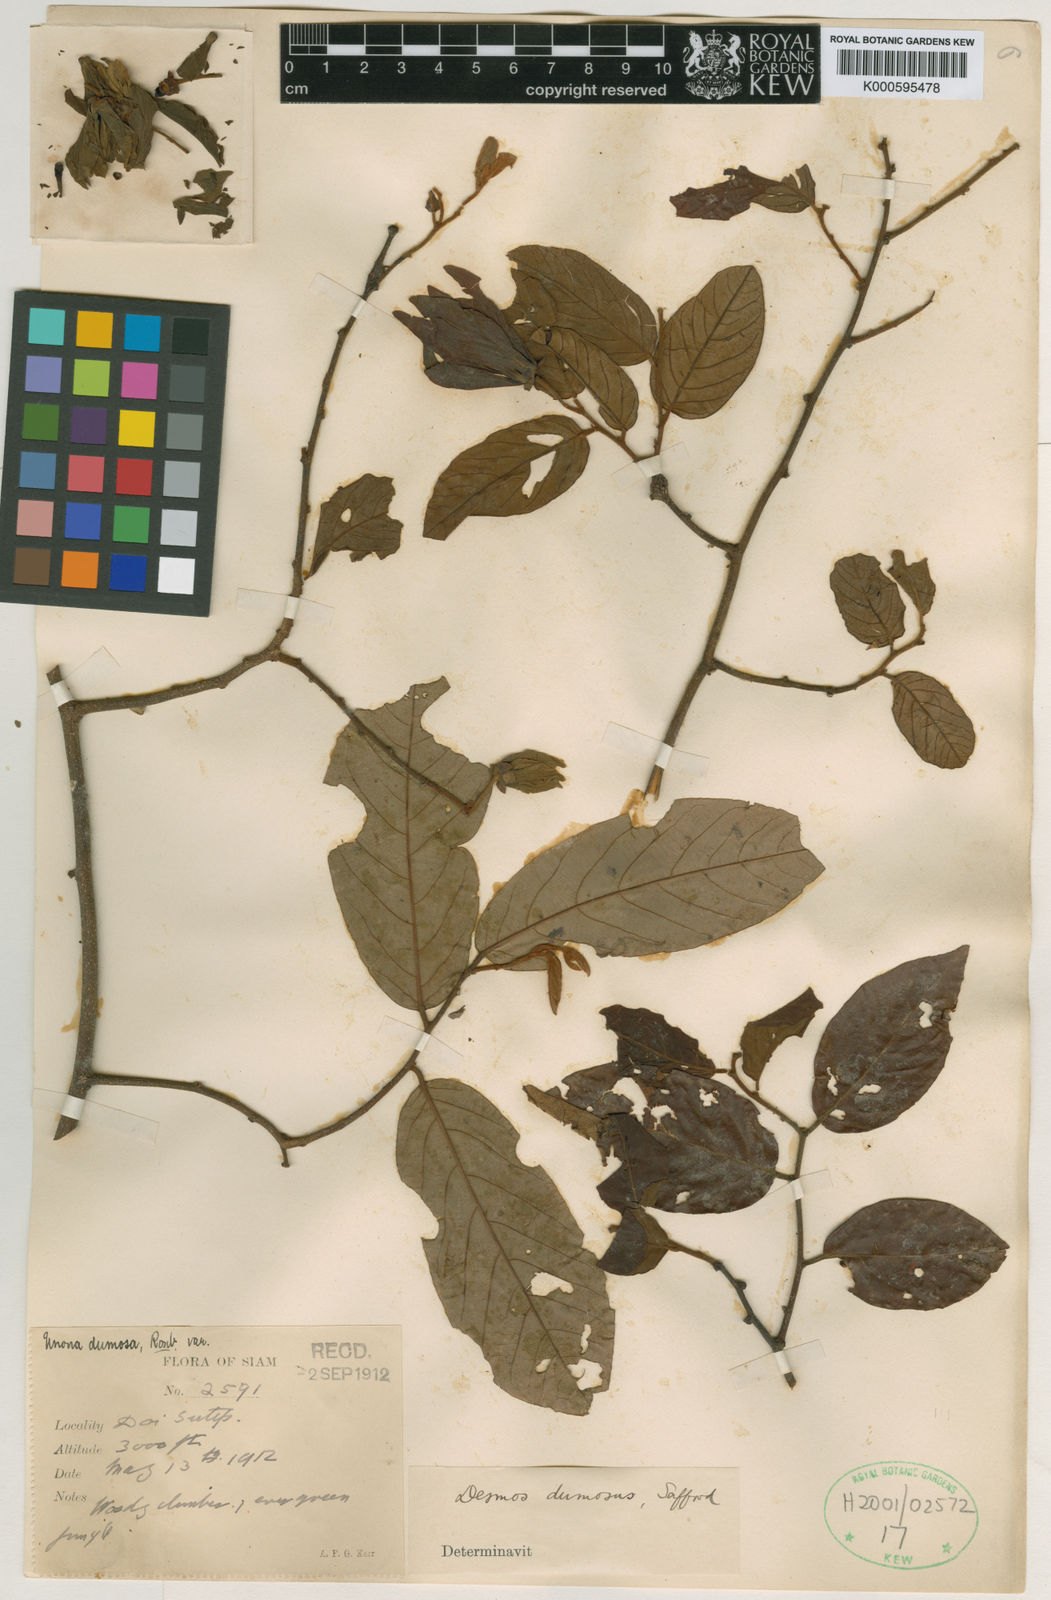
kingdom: Plantae
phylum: Tracheophyta
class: Magnoliopsida
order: Magnoliales
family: Annonaceae
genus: Desmos
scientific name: Desmos dumosus
